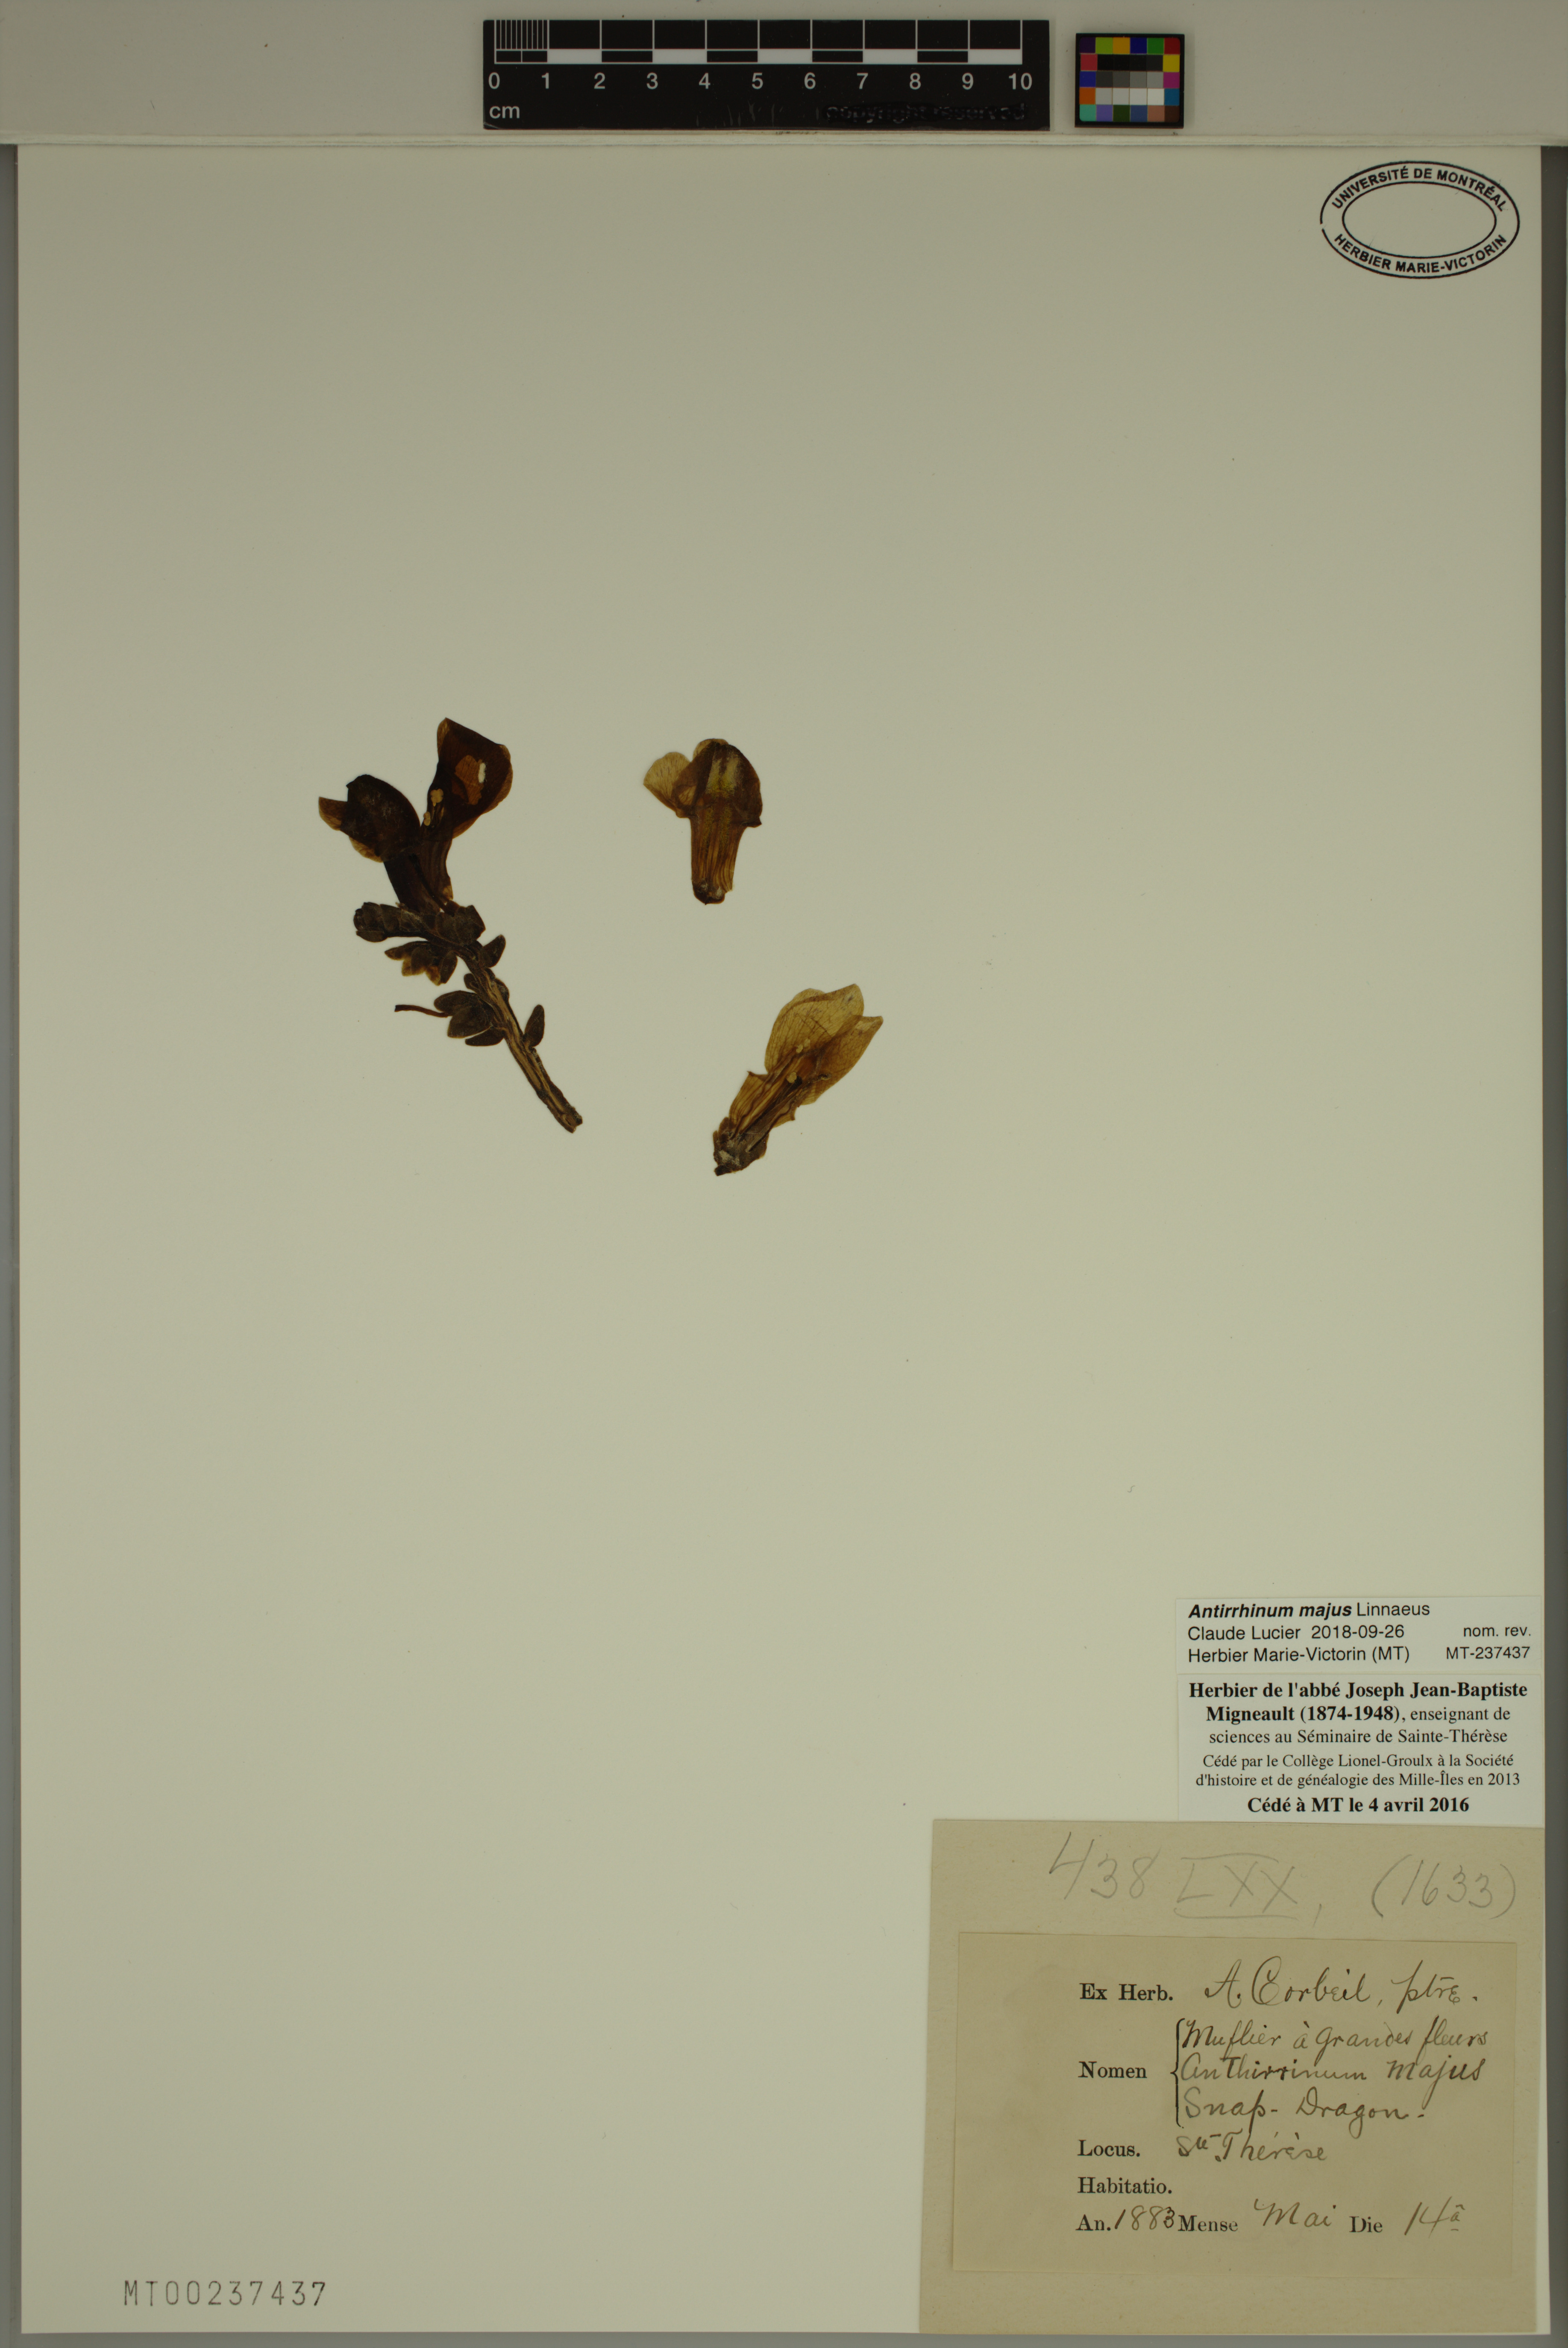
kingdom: Plantae
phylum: Tracheophyta
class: Magnoliopsida
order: Lamiales
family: Plantaginaceae
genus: Antirrhinum
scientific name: Antirrhinum majus
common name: Snapdragon
